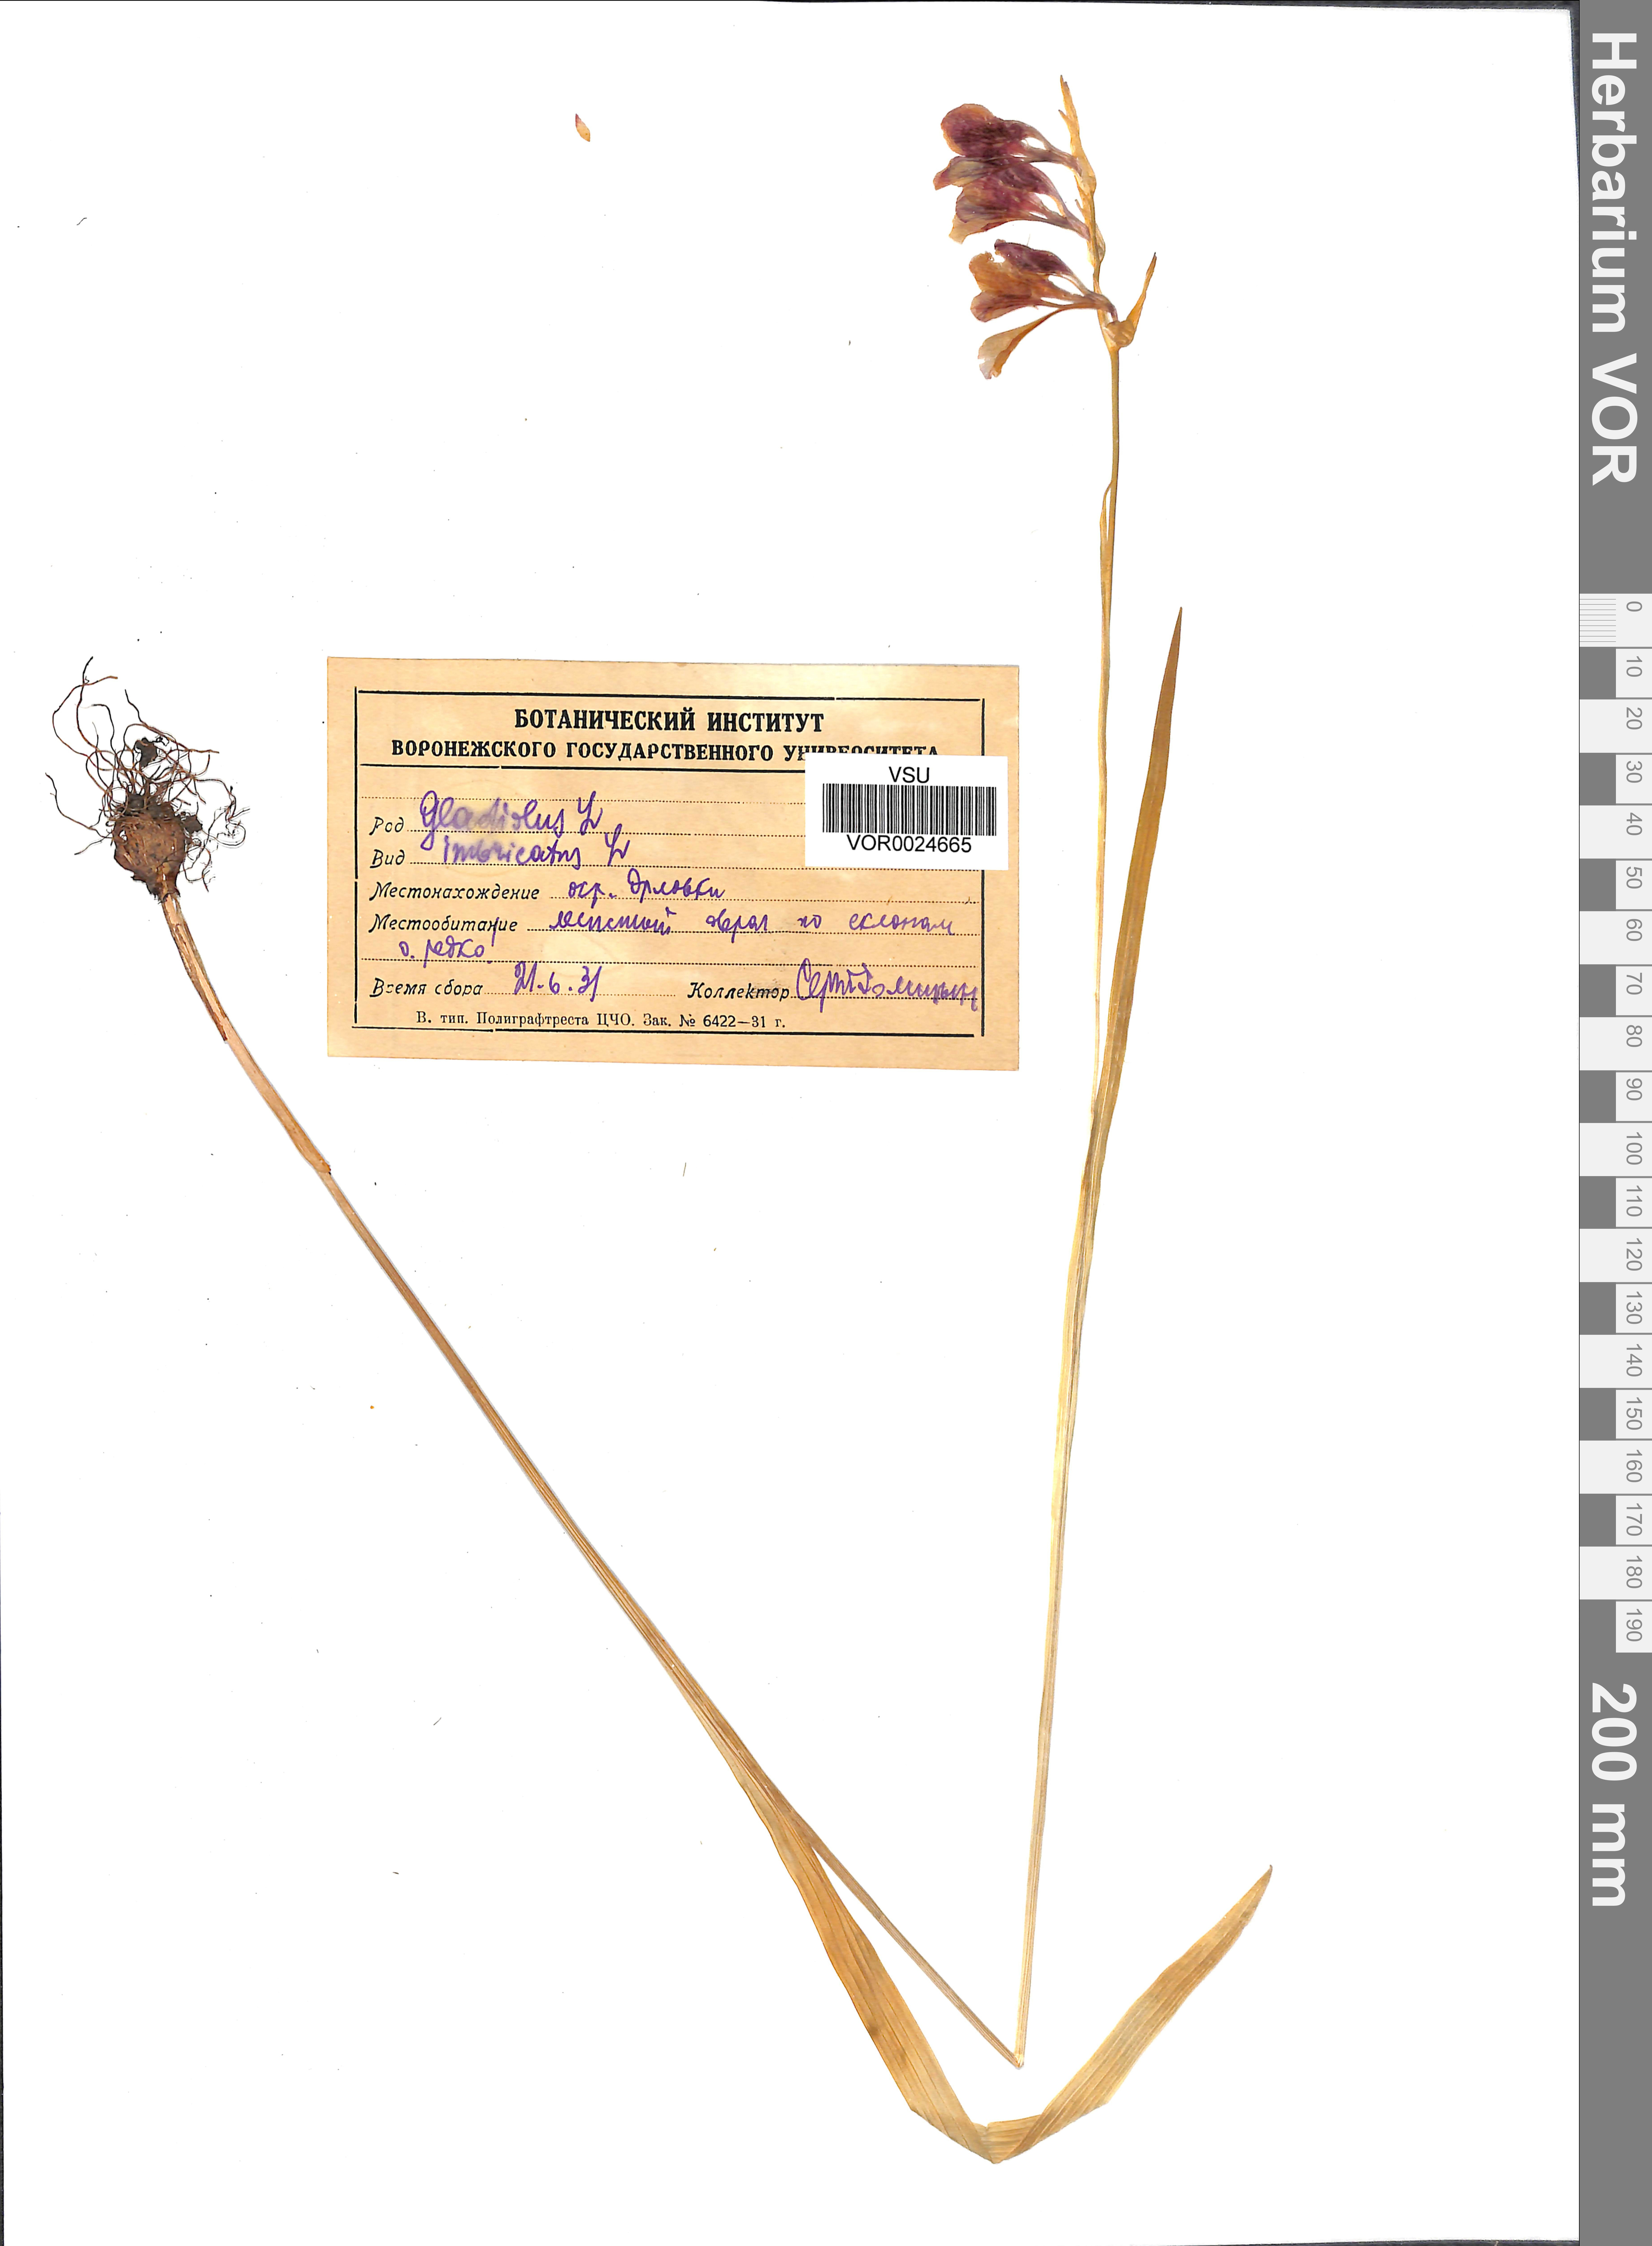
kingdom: Plantae
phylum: Tracheophyta
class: Liliopsida
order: Asparagales
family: Iridaceae
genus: Gladiolus
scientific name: Gladiolus tenuis
